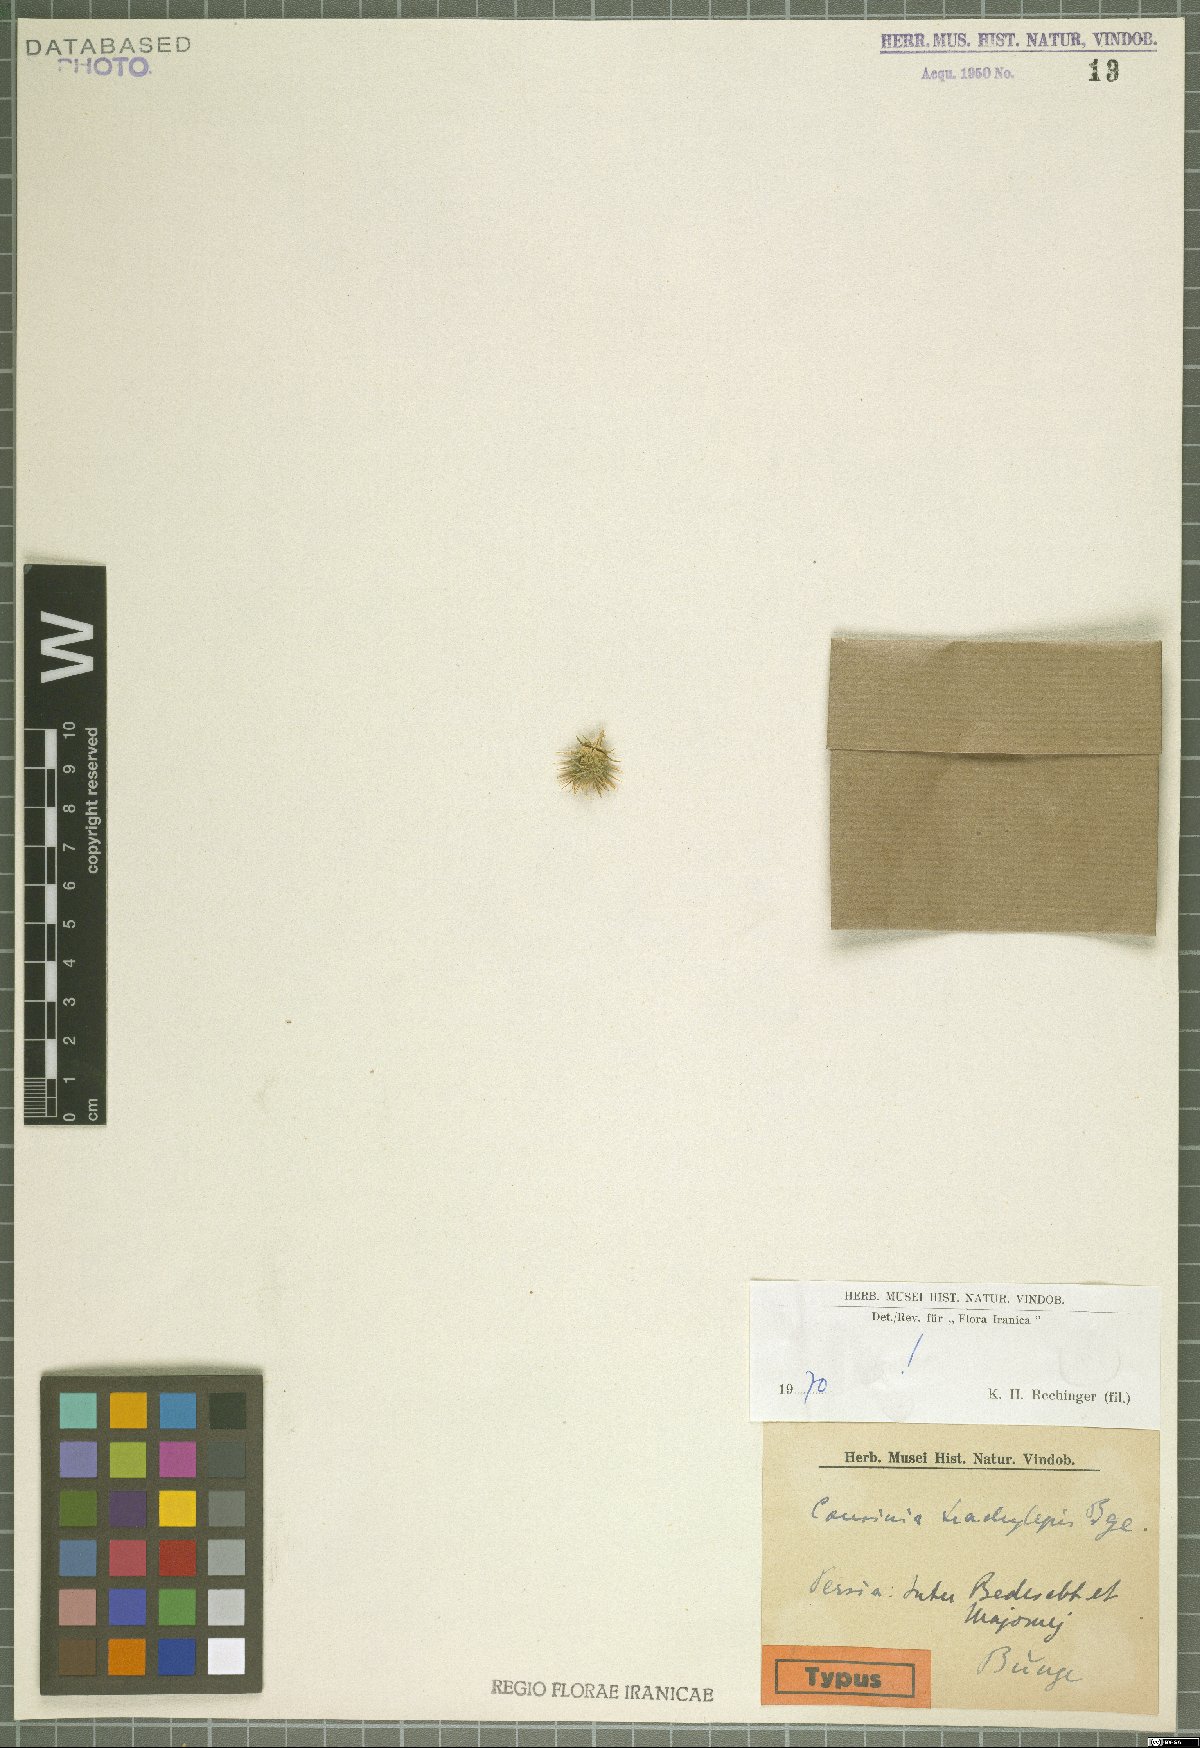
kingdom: Plantae
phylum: Tracheophyta
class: Magnoliopsida
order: Asterales
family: Asteraceae
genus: Cousinia
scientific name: Cousinia trachylepis
